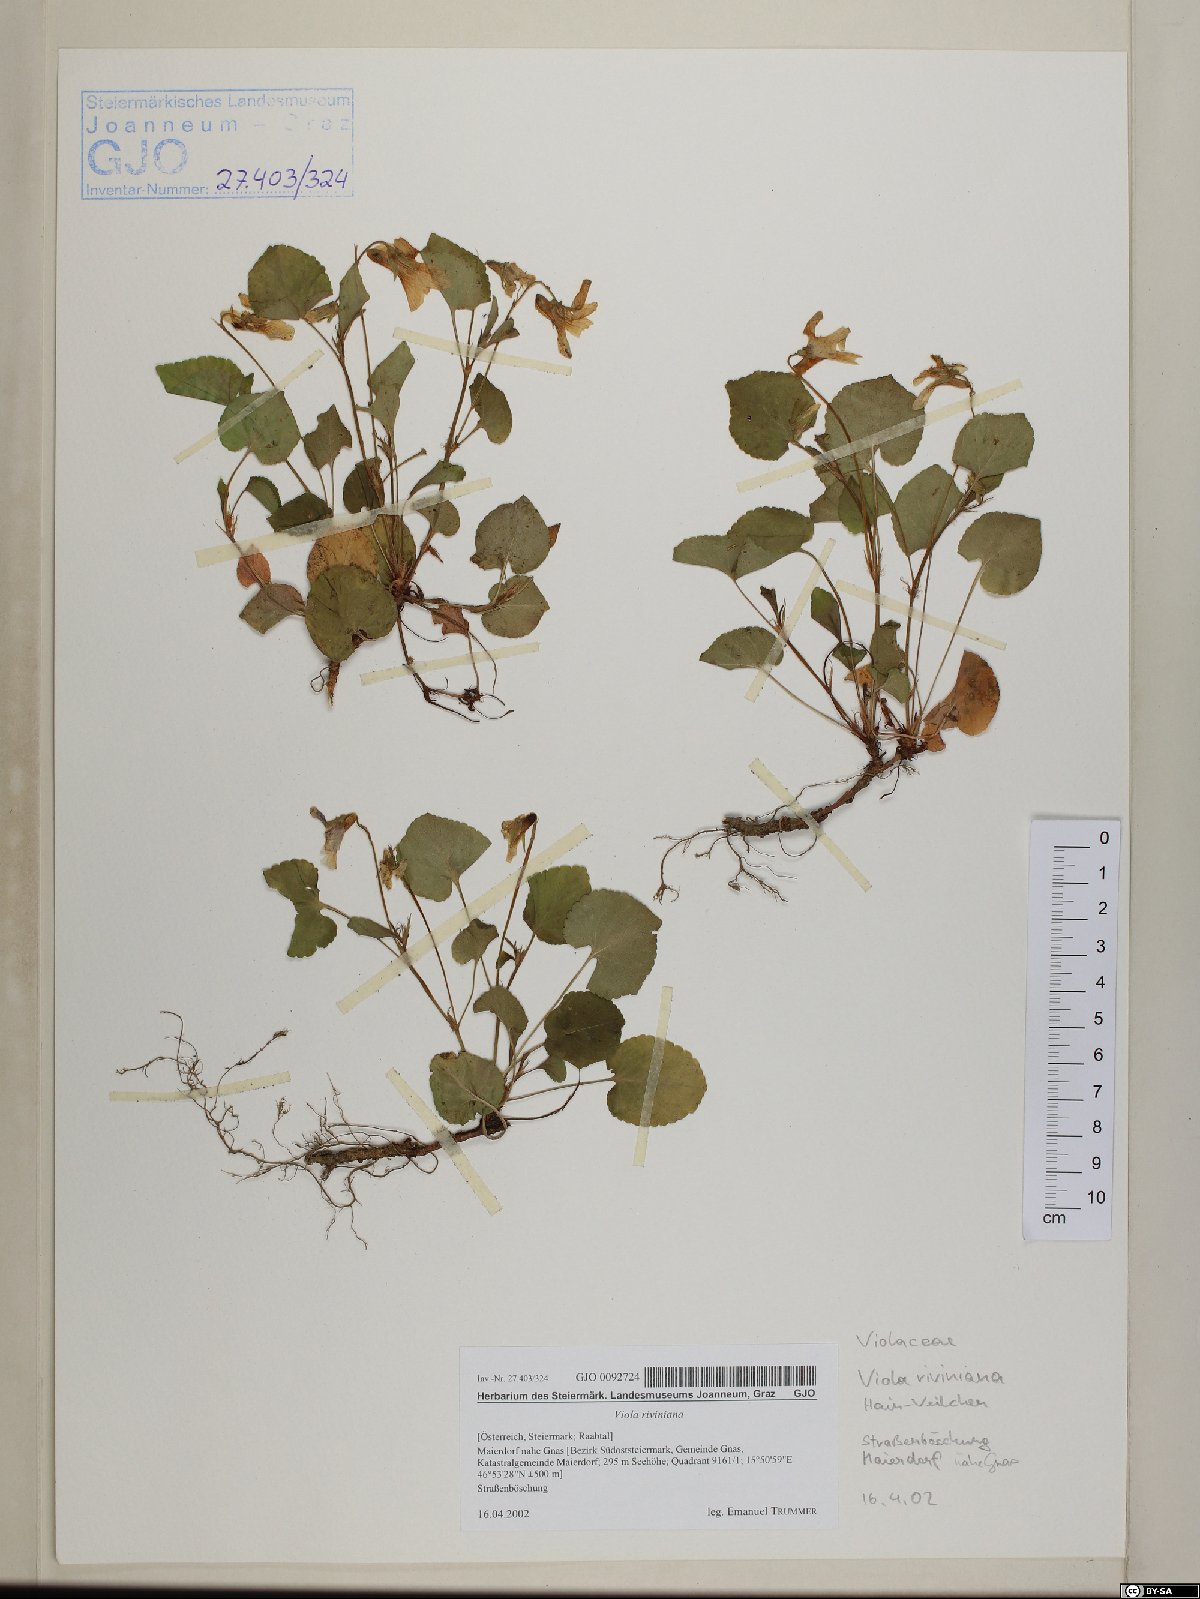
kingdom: Plantae
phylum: Tracheophyta
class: Magnoliopsida
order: Malpighiales
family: Violaceae
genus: Viola
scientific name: Viola riviniana
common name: Common dog-violet
